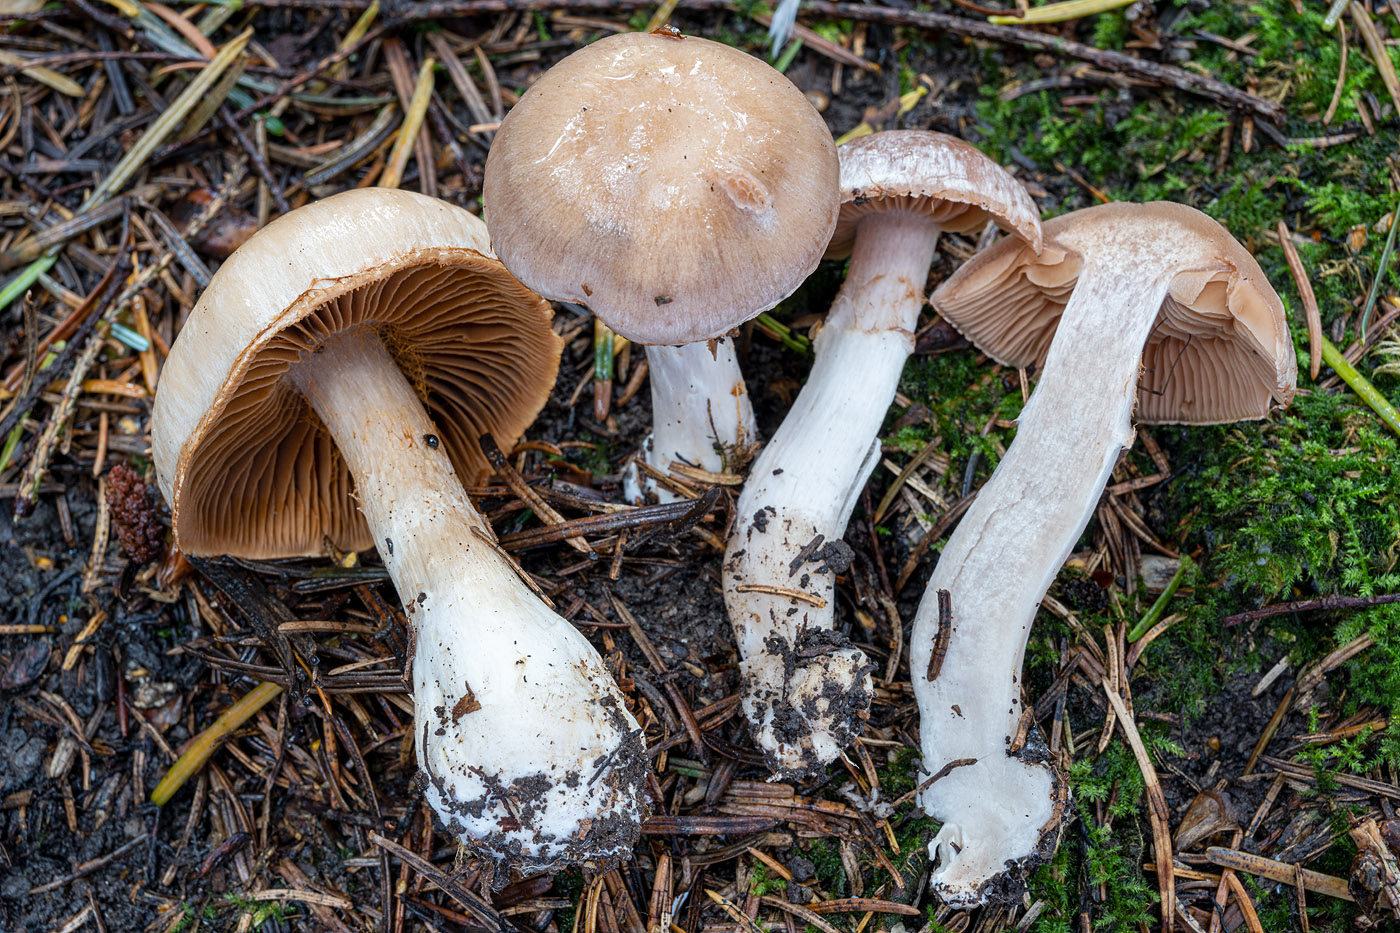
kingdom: Fungi
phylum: Basidiomycota
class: Agaricomycetes
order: Agaricales
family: Cortinariaceae
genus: Cortinarius
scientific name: Cortinarius uxorum
